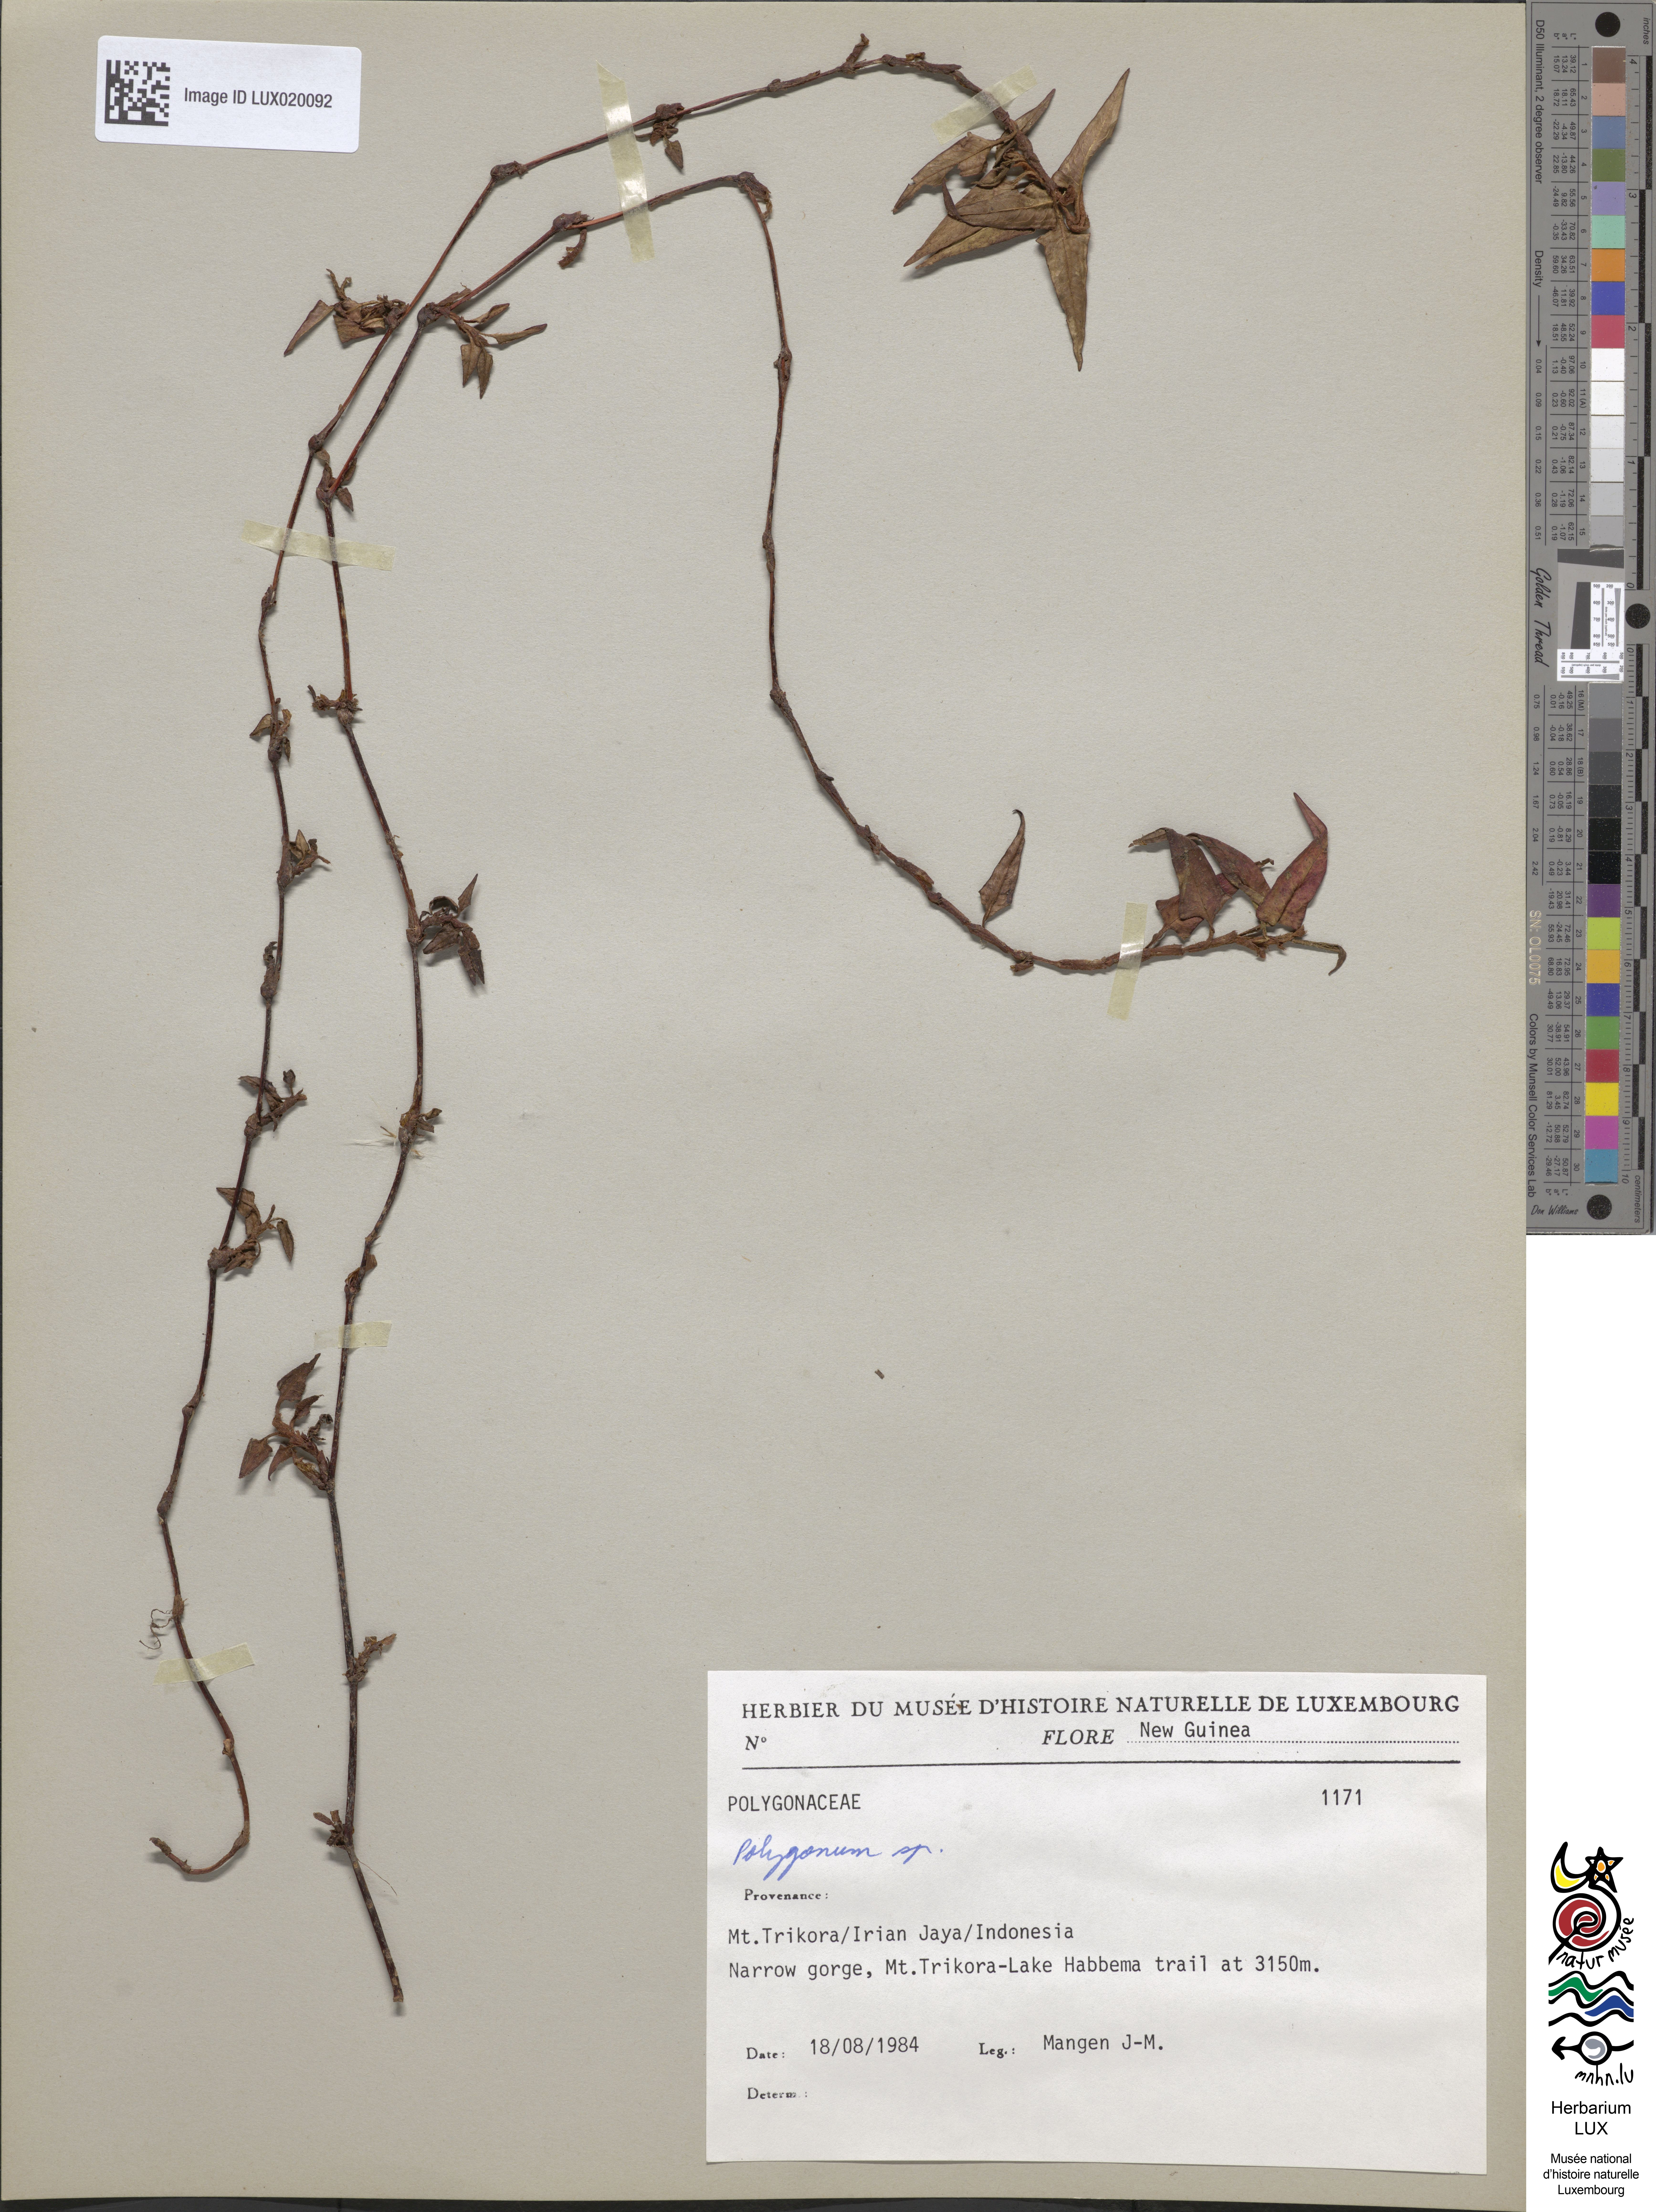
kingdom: Plantae
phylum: Tracheophyta
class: Magnoliopsida
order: Caryophyllales
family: Polygonaceae
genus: Polygonum
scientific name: Polygonum
